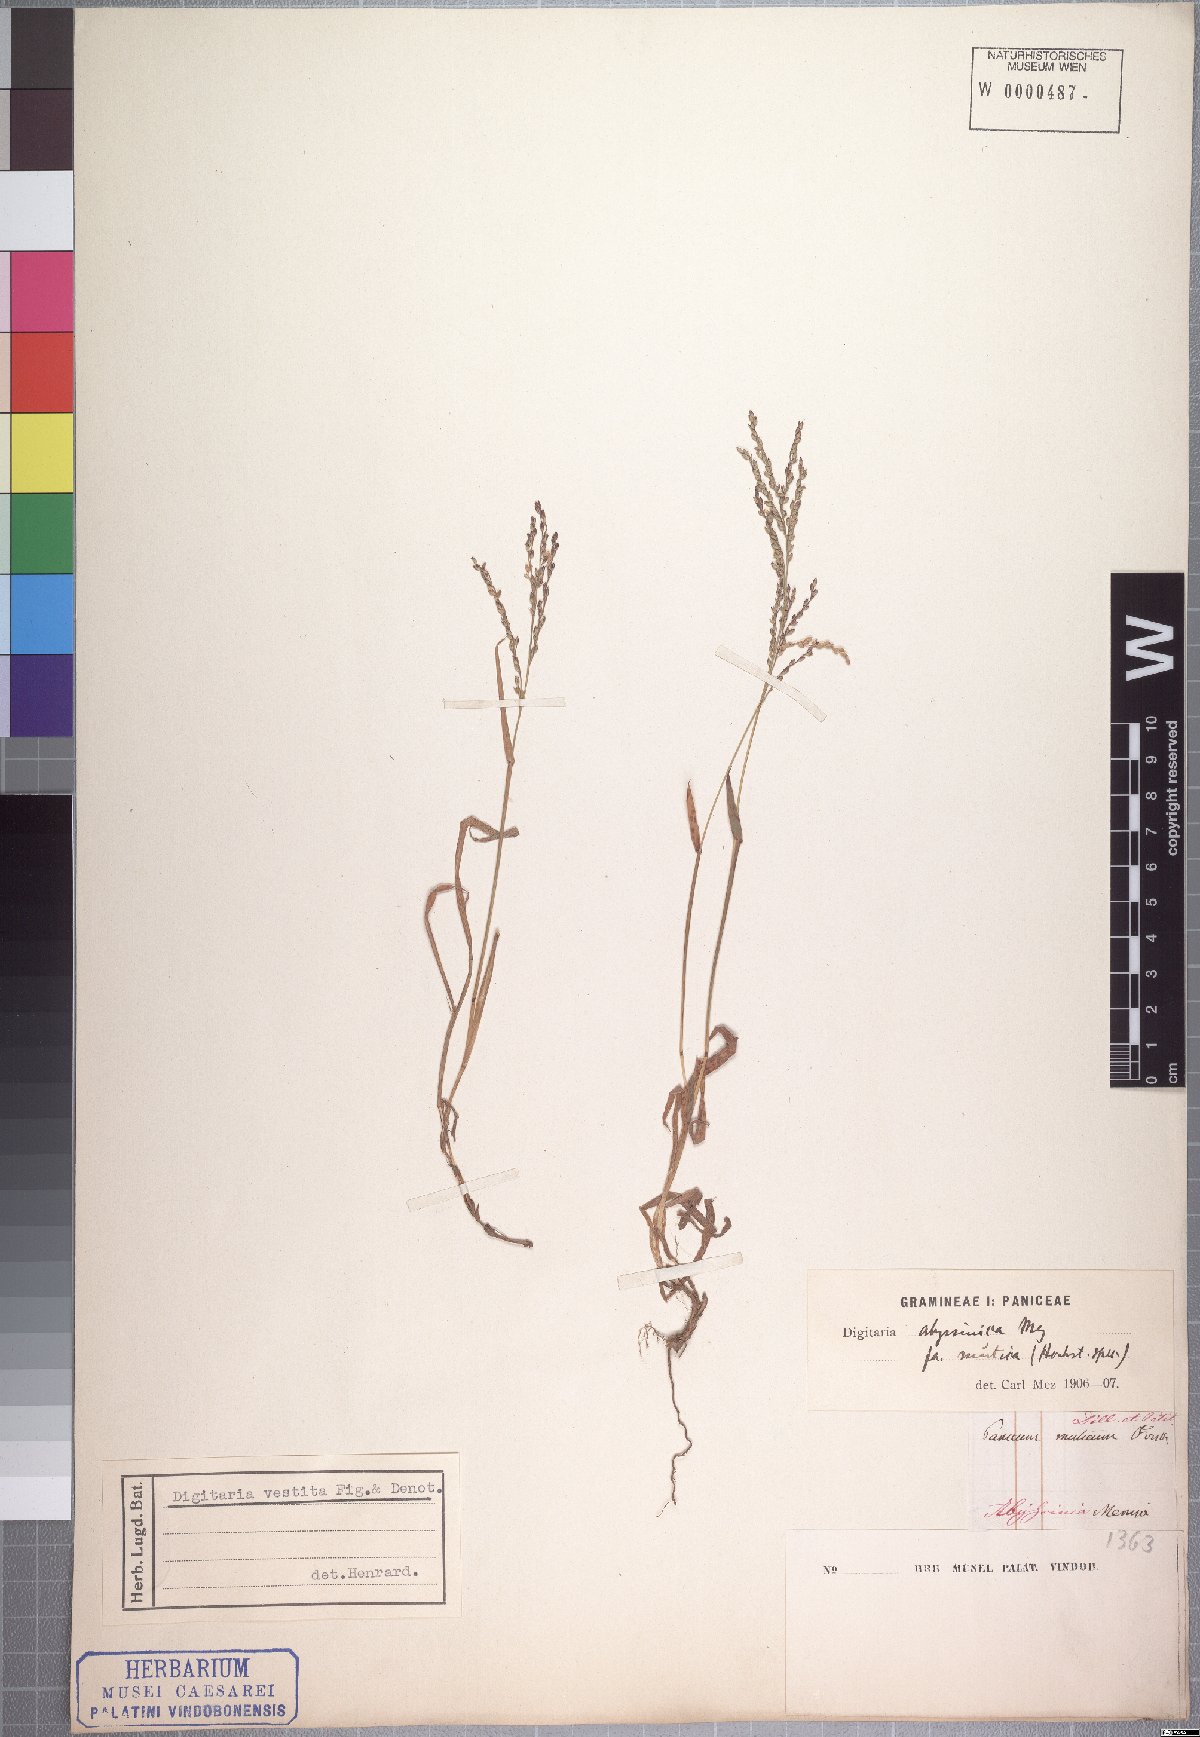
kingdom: Plantae
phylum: Tracheophyta
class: Liliopsida
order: Poales
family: Poaceae
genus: Digitaria
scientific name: Digitaria abyssinica
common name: African couchgrass
